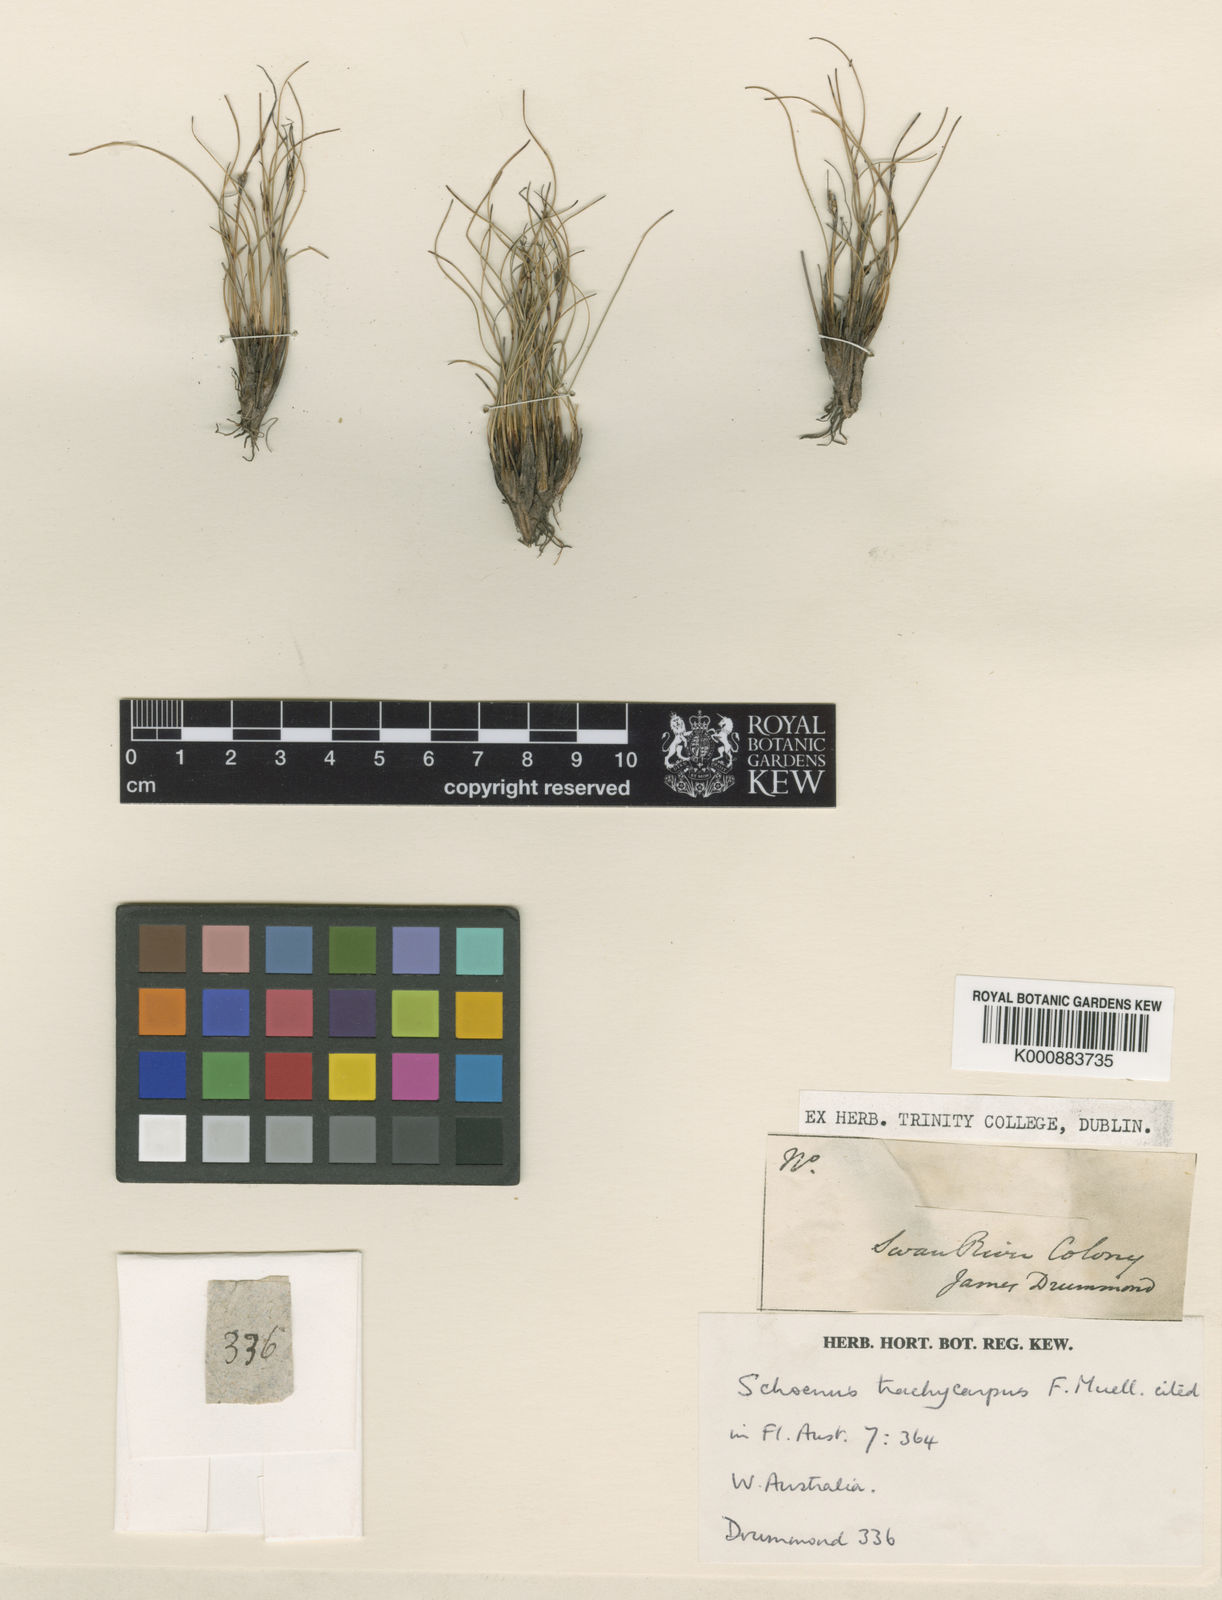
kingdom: Plantae
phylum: Tracheophyta
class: Liliopsida
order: Poales
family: Cyperaceae
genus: Schoenus
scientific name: Schoenus trachycarpus
